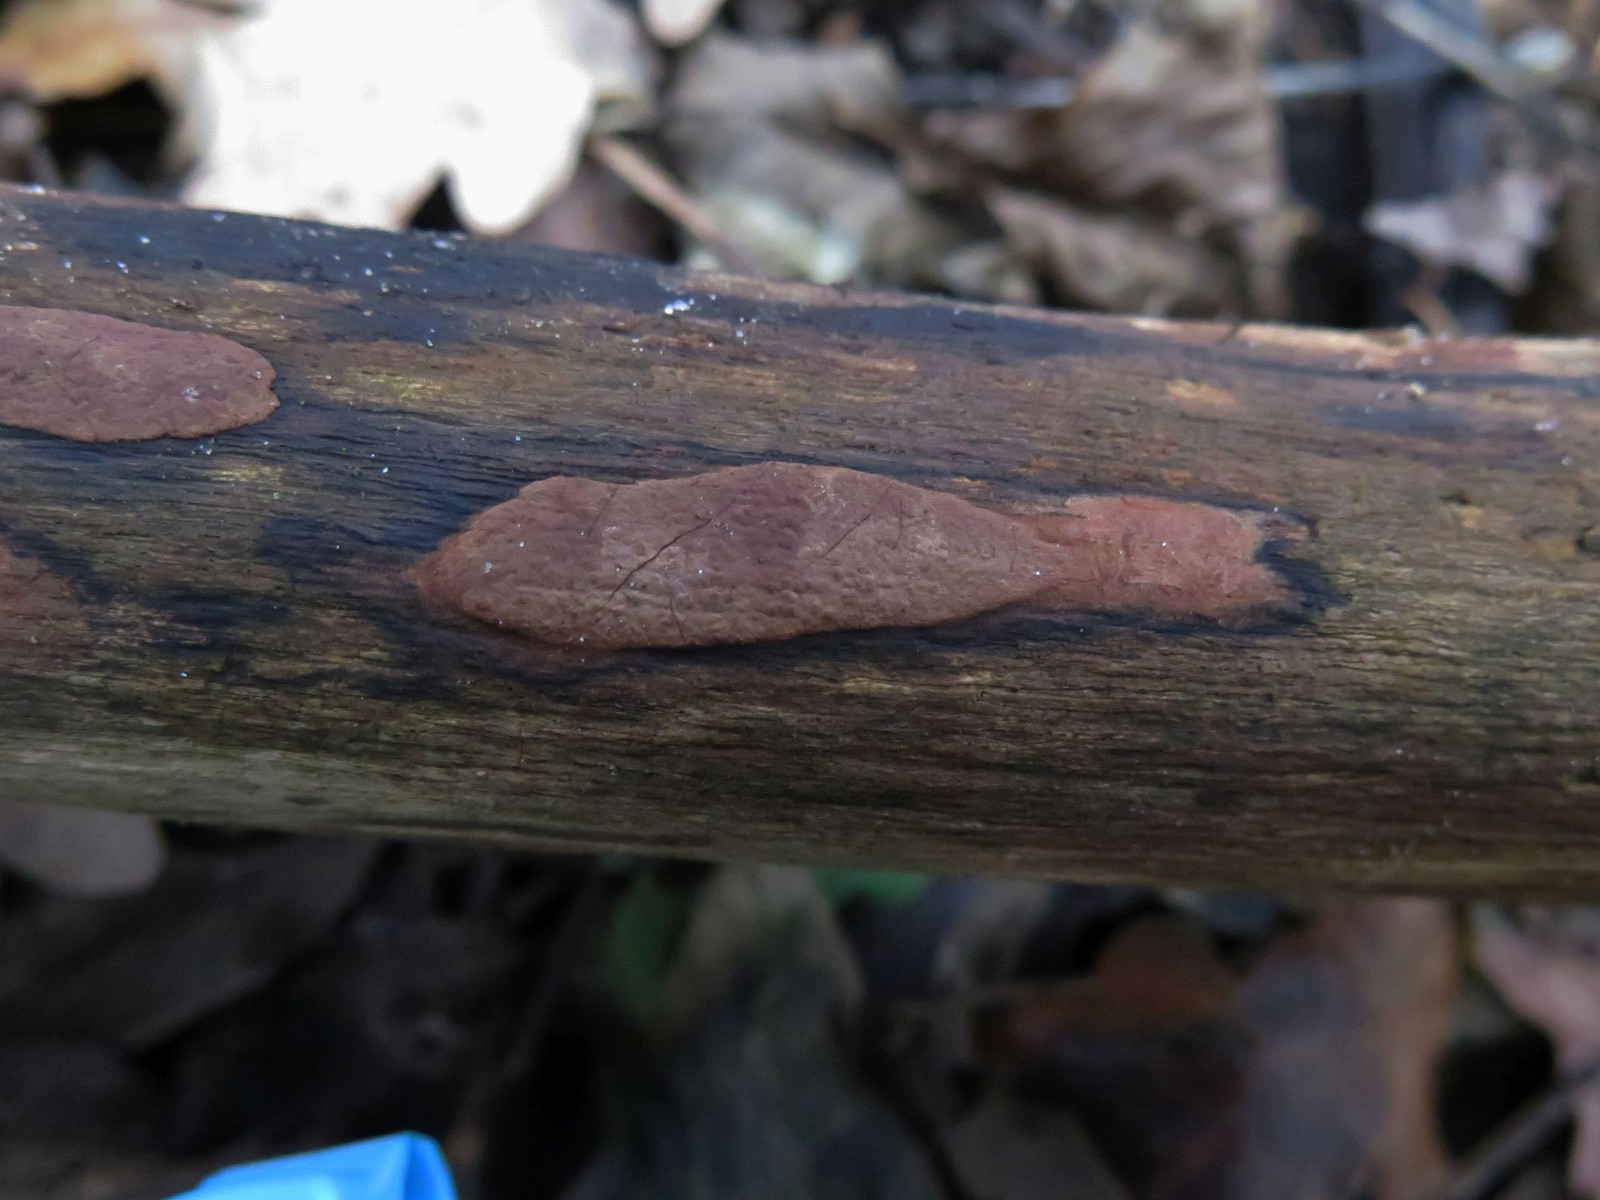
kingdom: Fungi
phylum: Ascomycota
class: Sordariomycetes
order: Xylariales
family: Hypoxylaceae
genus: Hypoxylon
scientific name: Hypoxylon macrocarpum
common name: skorpe-kulbær
